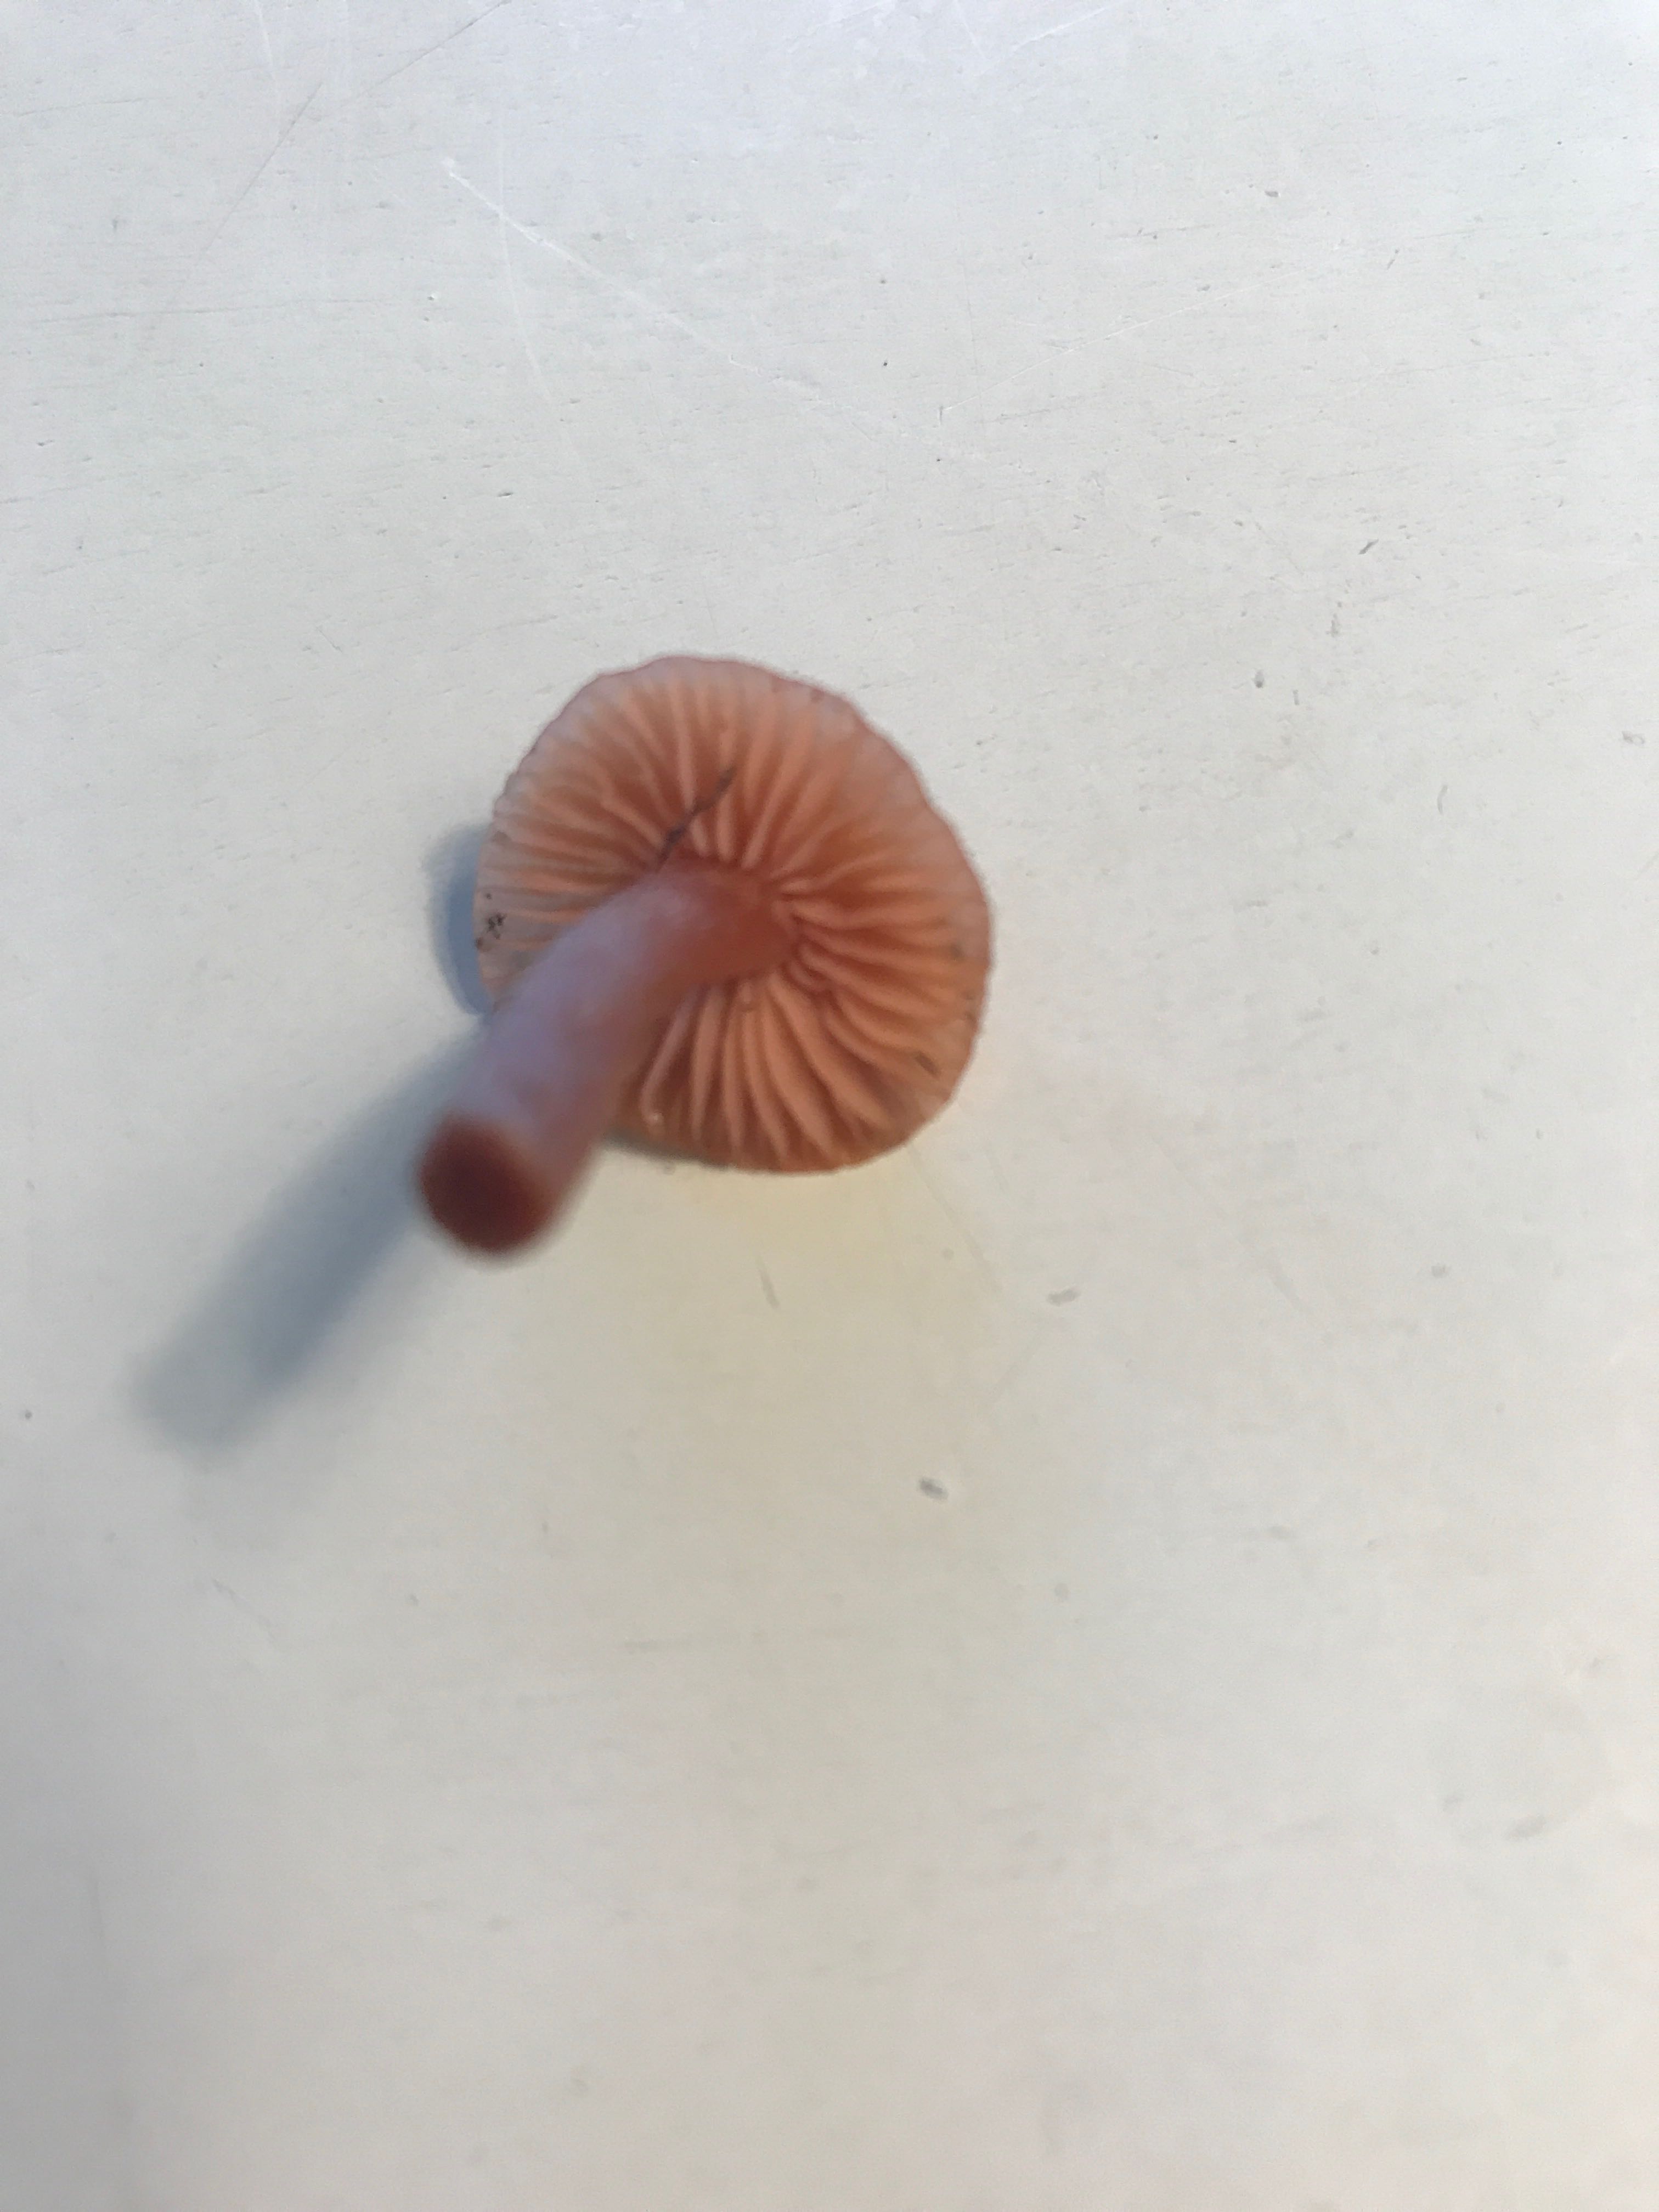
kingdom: Fungi
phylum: Basidiomycota
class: Agaricomycetes
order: Agaricales
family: Hydnangiaceae
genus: Laccaria
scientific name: Laccaria
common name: ametysthat
